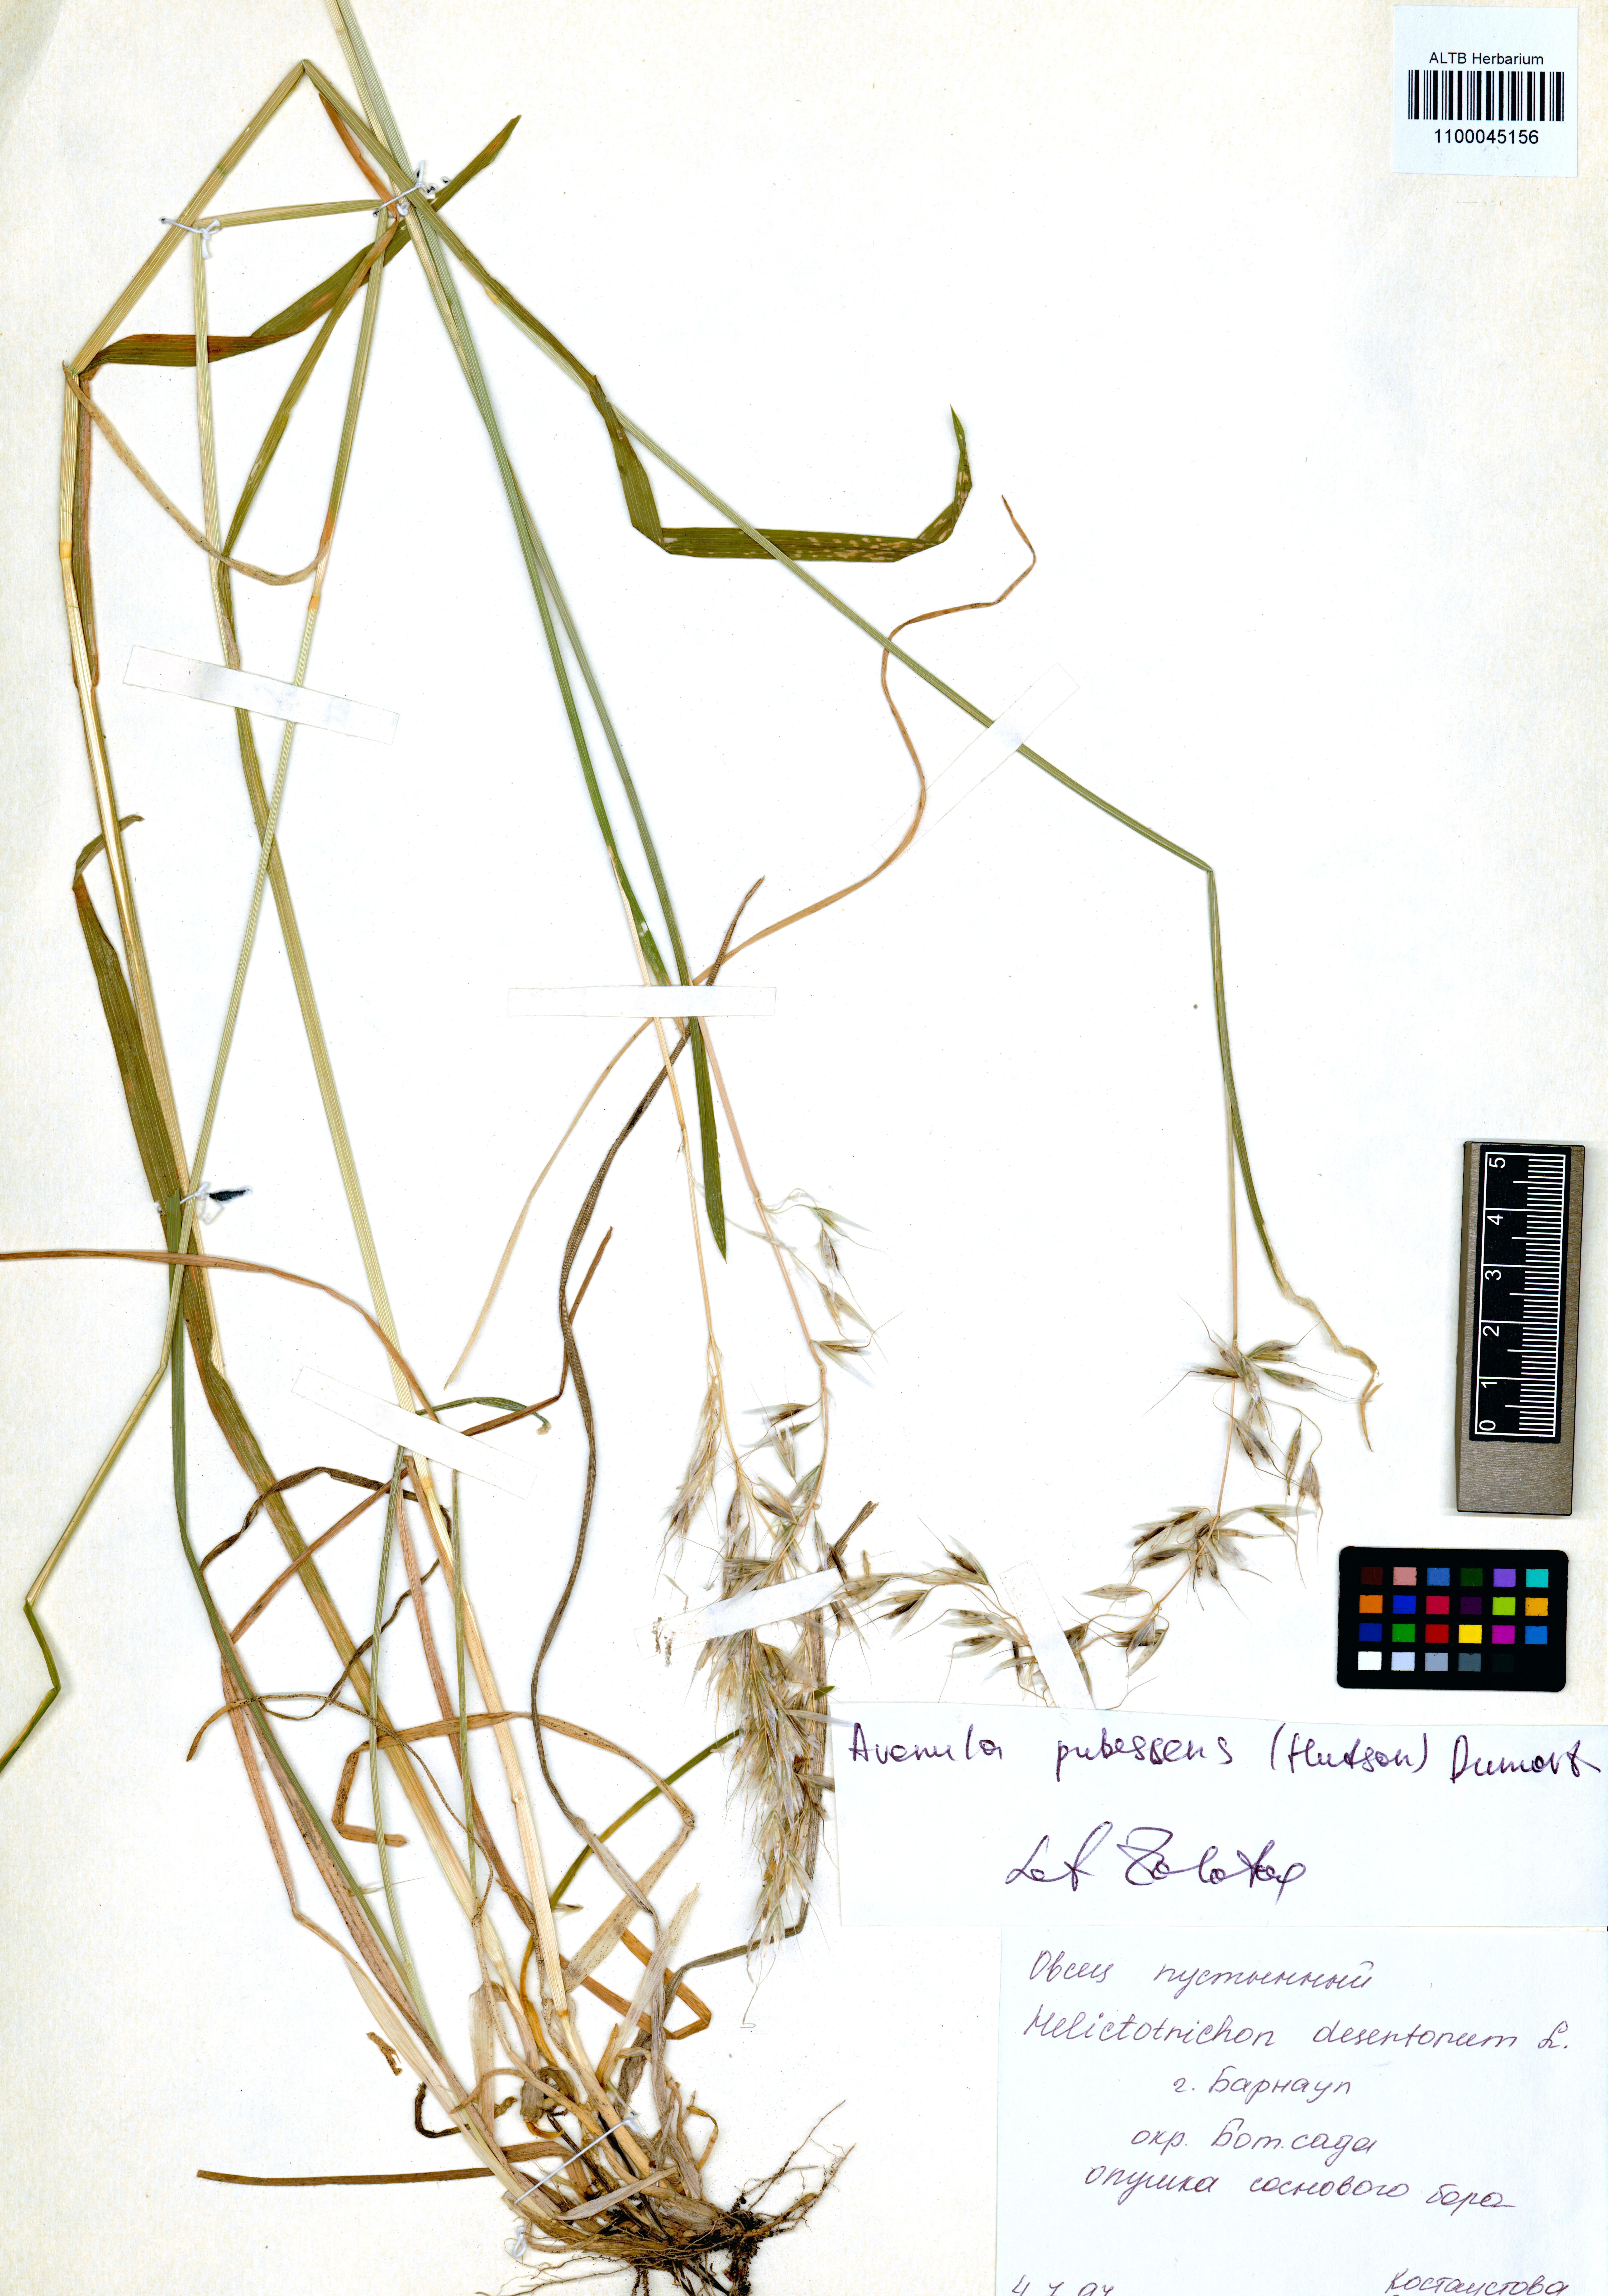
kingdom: Plantae
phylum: Tracheophyta
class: Liliopsida
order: Poales
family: Poaceae
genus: Avenula
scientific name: Avenula pubescens
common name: Downy alpine oatgrass
